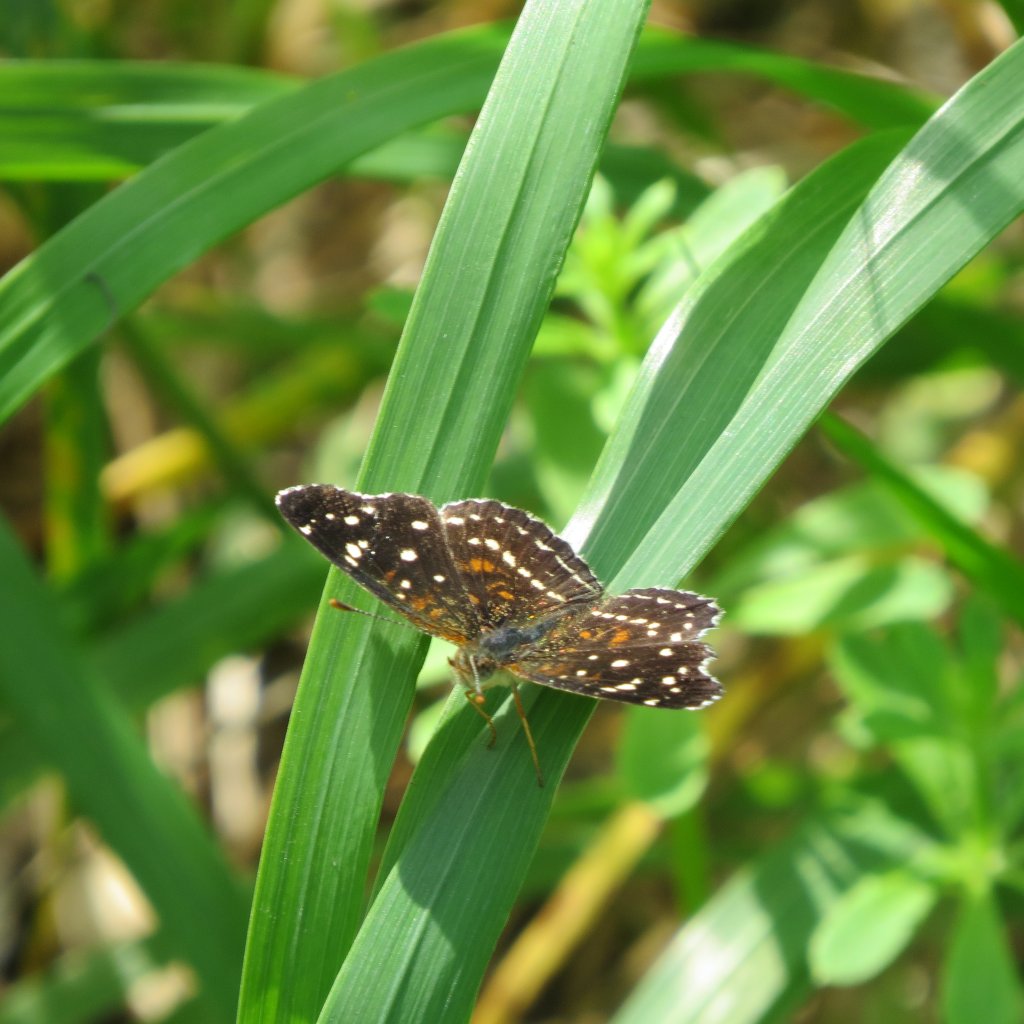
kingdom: Animalia
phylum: Arthropoda
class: Insecta
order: Lepidoptera
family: Nymphalidae
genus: Anthanassa
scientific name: Anthanassa texana
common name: Texan Crescent
